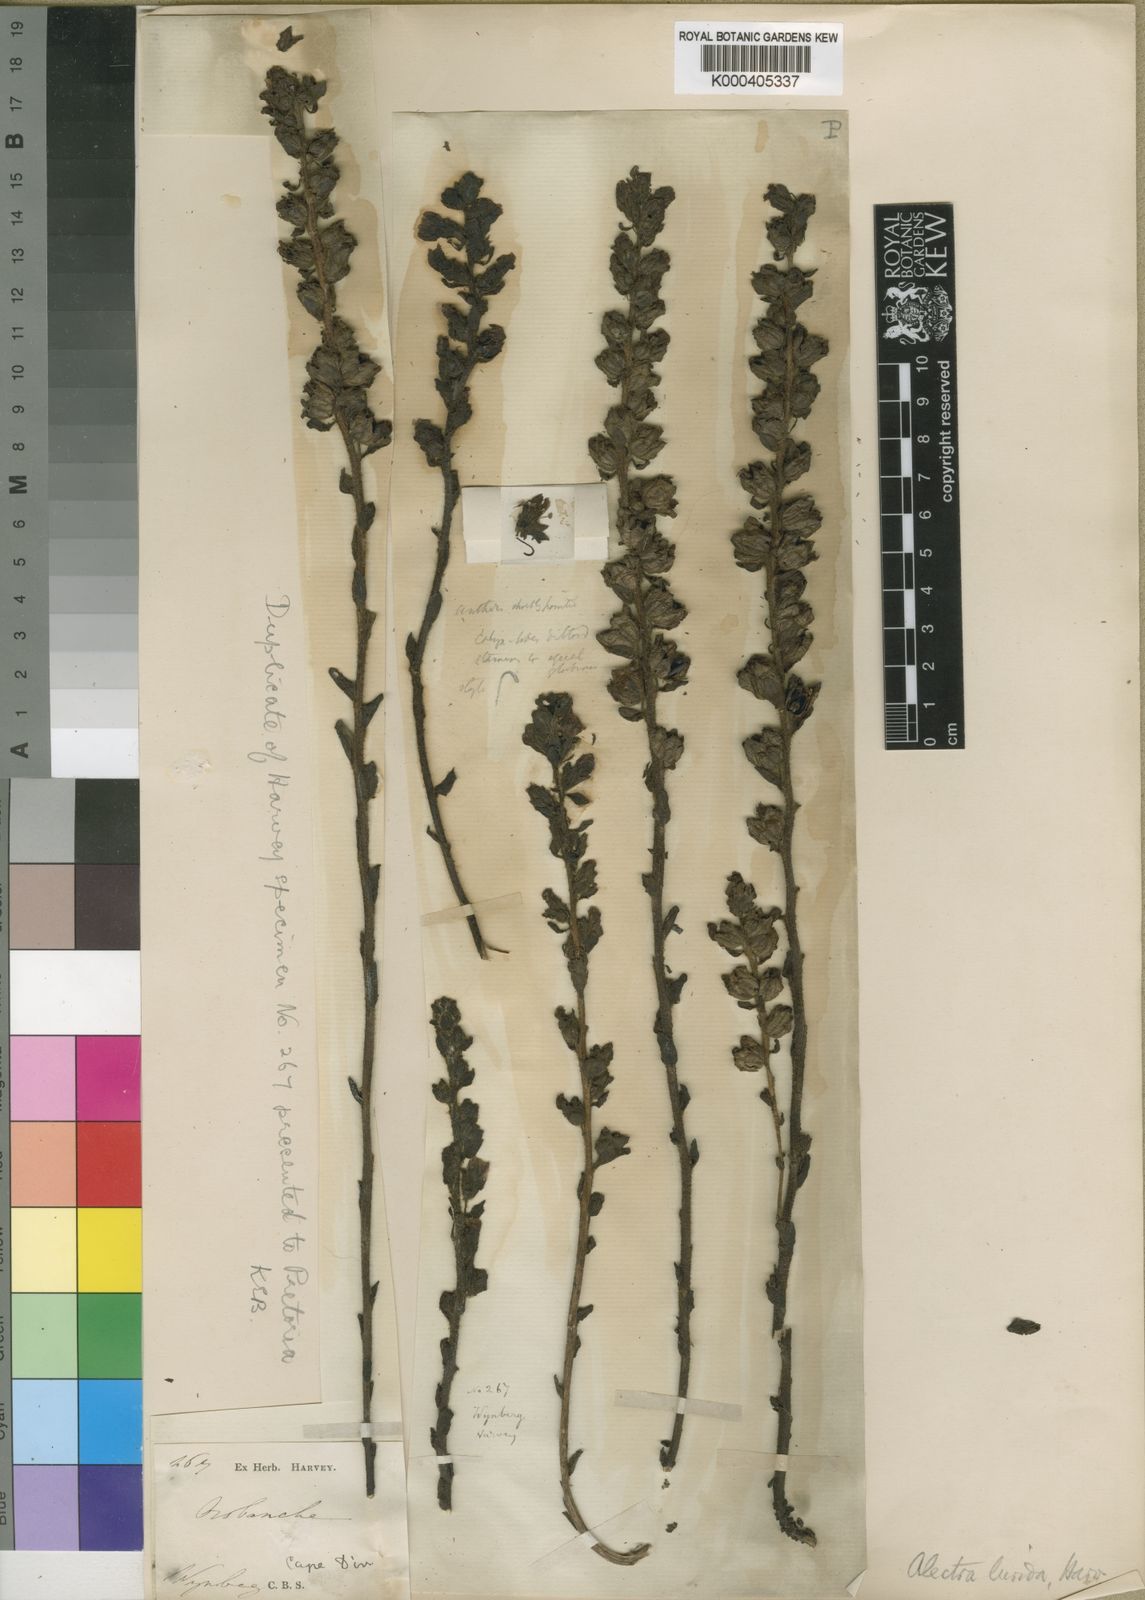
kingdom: Plantae
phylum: Tracheophyta
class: Magnoliopsida
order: Lamiales
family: Orobanchaceae
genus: Alectra
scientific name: Alectra lurida
